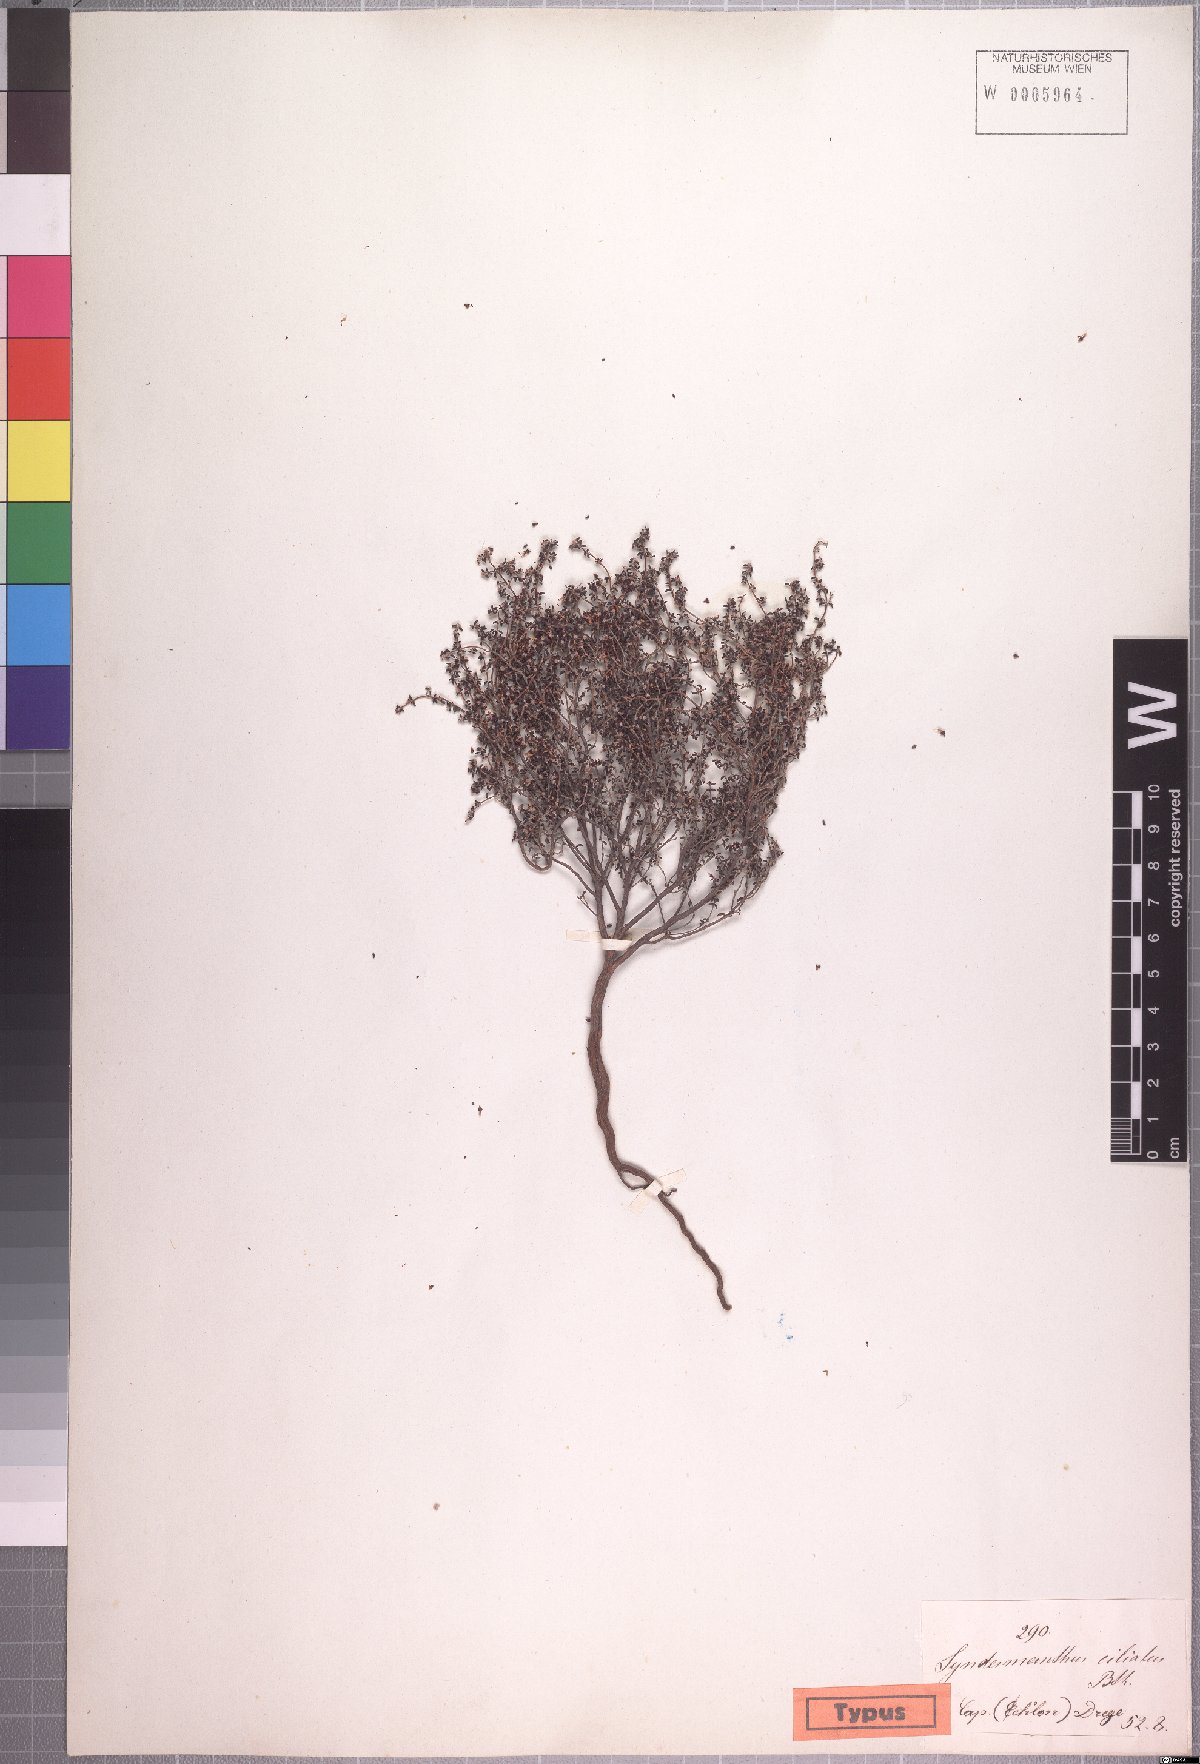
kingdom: Plantae
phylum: Tracheophyta
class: Magnoliopsida
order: Ericales
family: Ericaceae
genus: Erica
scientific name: Erica paucifolia
